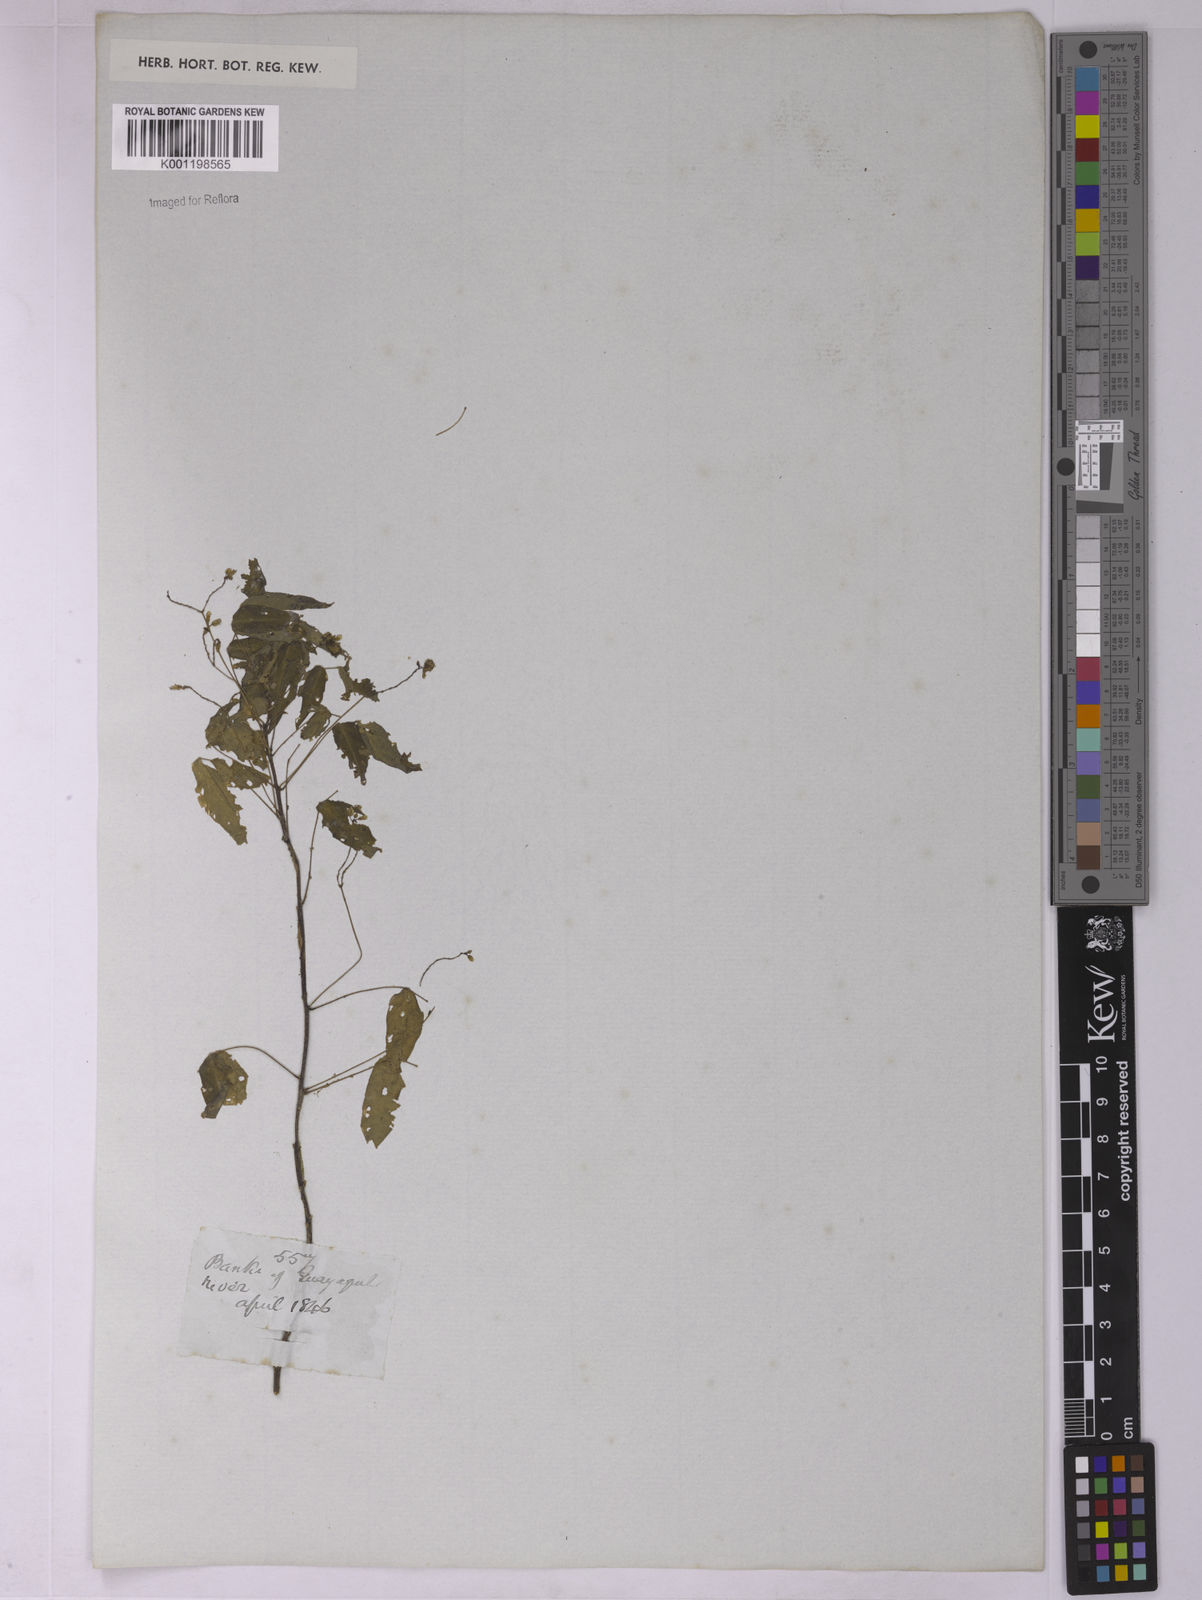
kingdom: Plantae
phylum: Tracheophyta
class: Magnoliopsida
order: Oxalidales
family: Oxalidaceae
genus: Oxalis
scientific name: Oxalis
